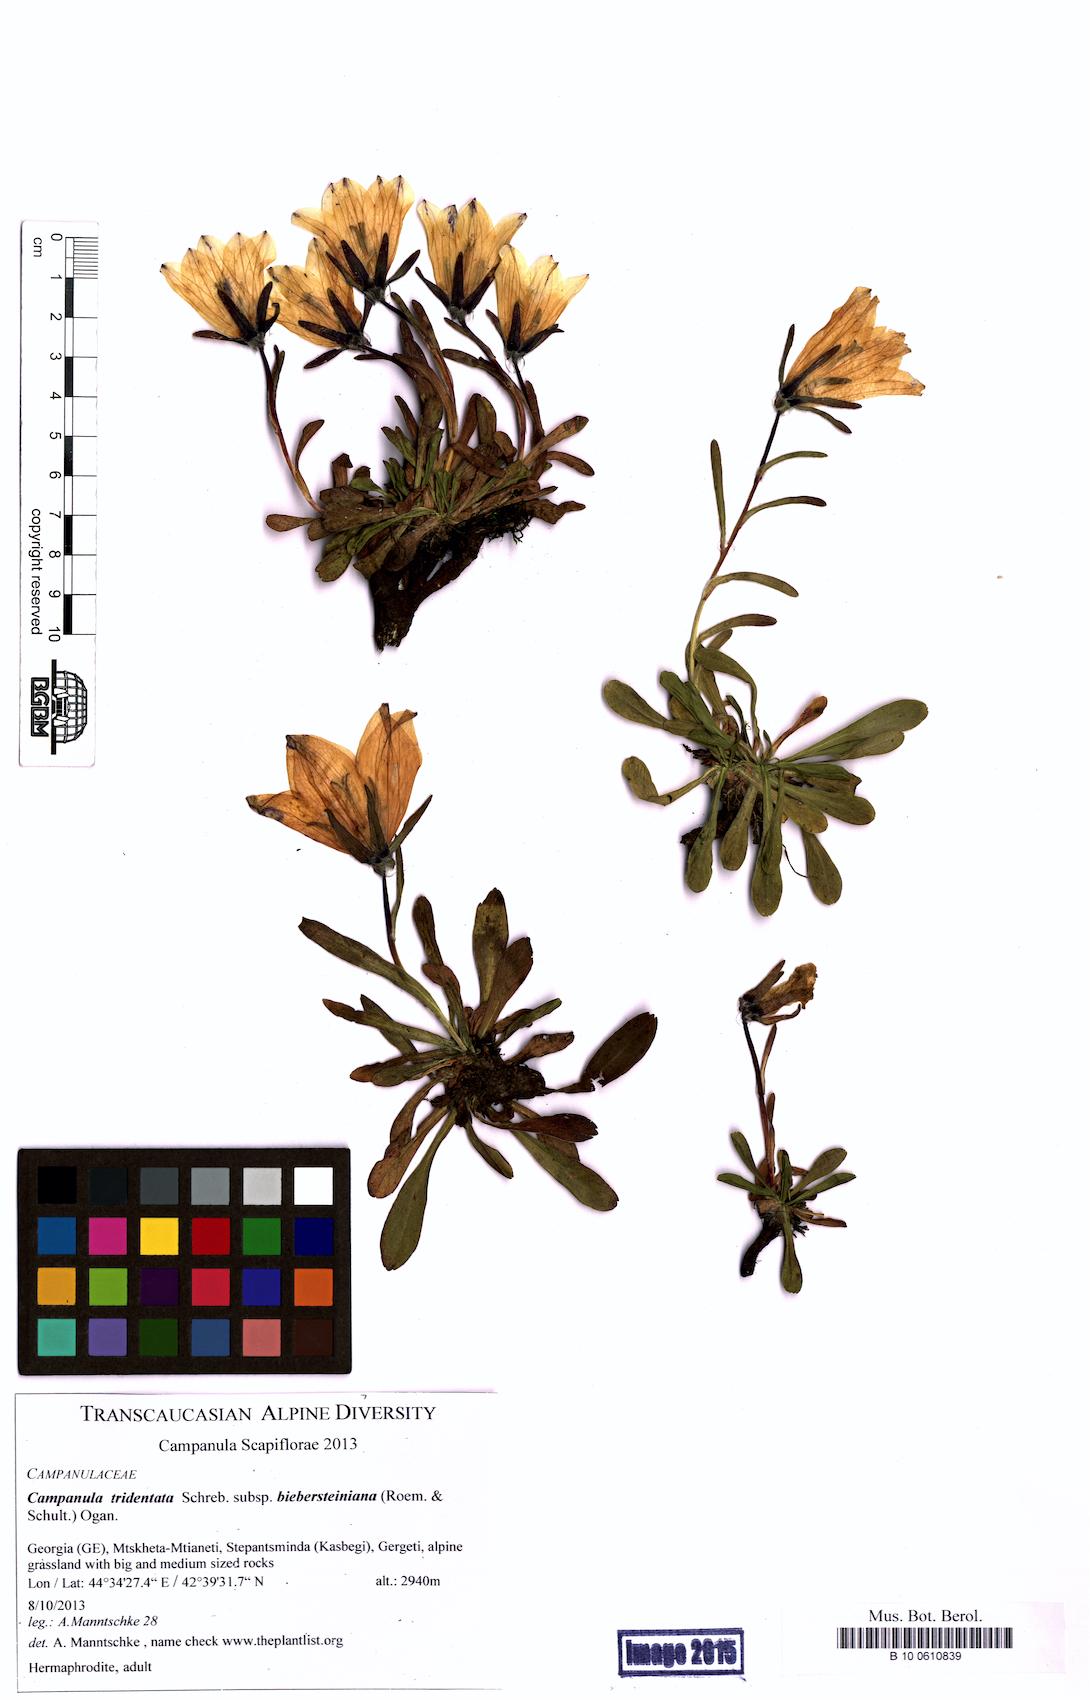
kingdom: Plantae
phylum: Tracheophyta
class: Magnoliopsida
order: Asterales
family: Campanulaceae
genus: Campanula
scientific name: Campanula tridentata
